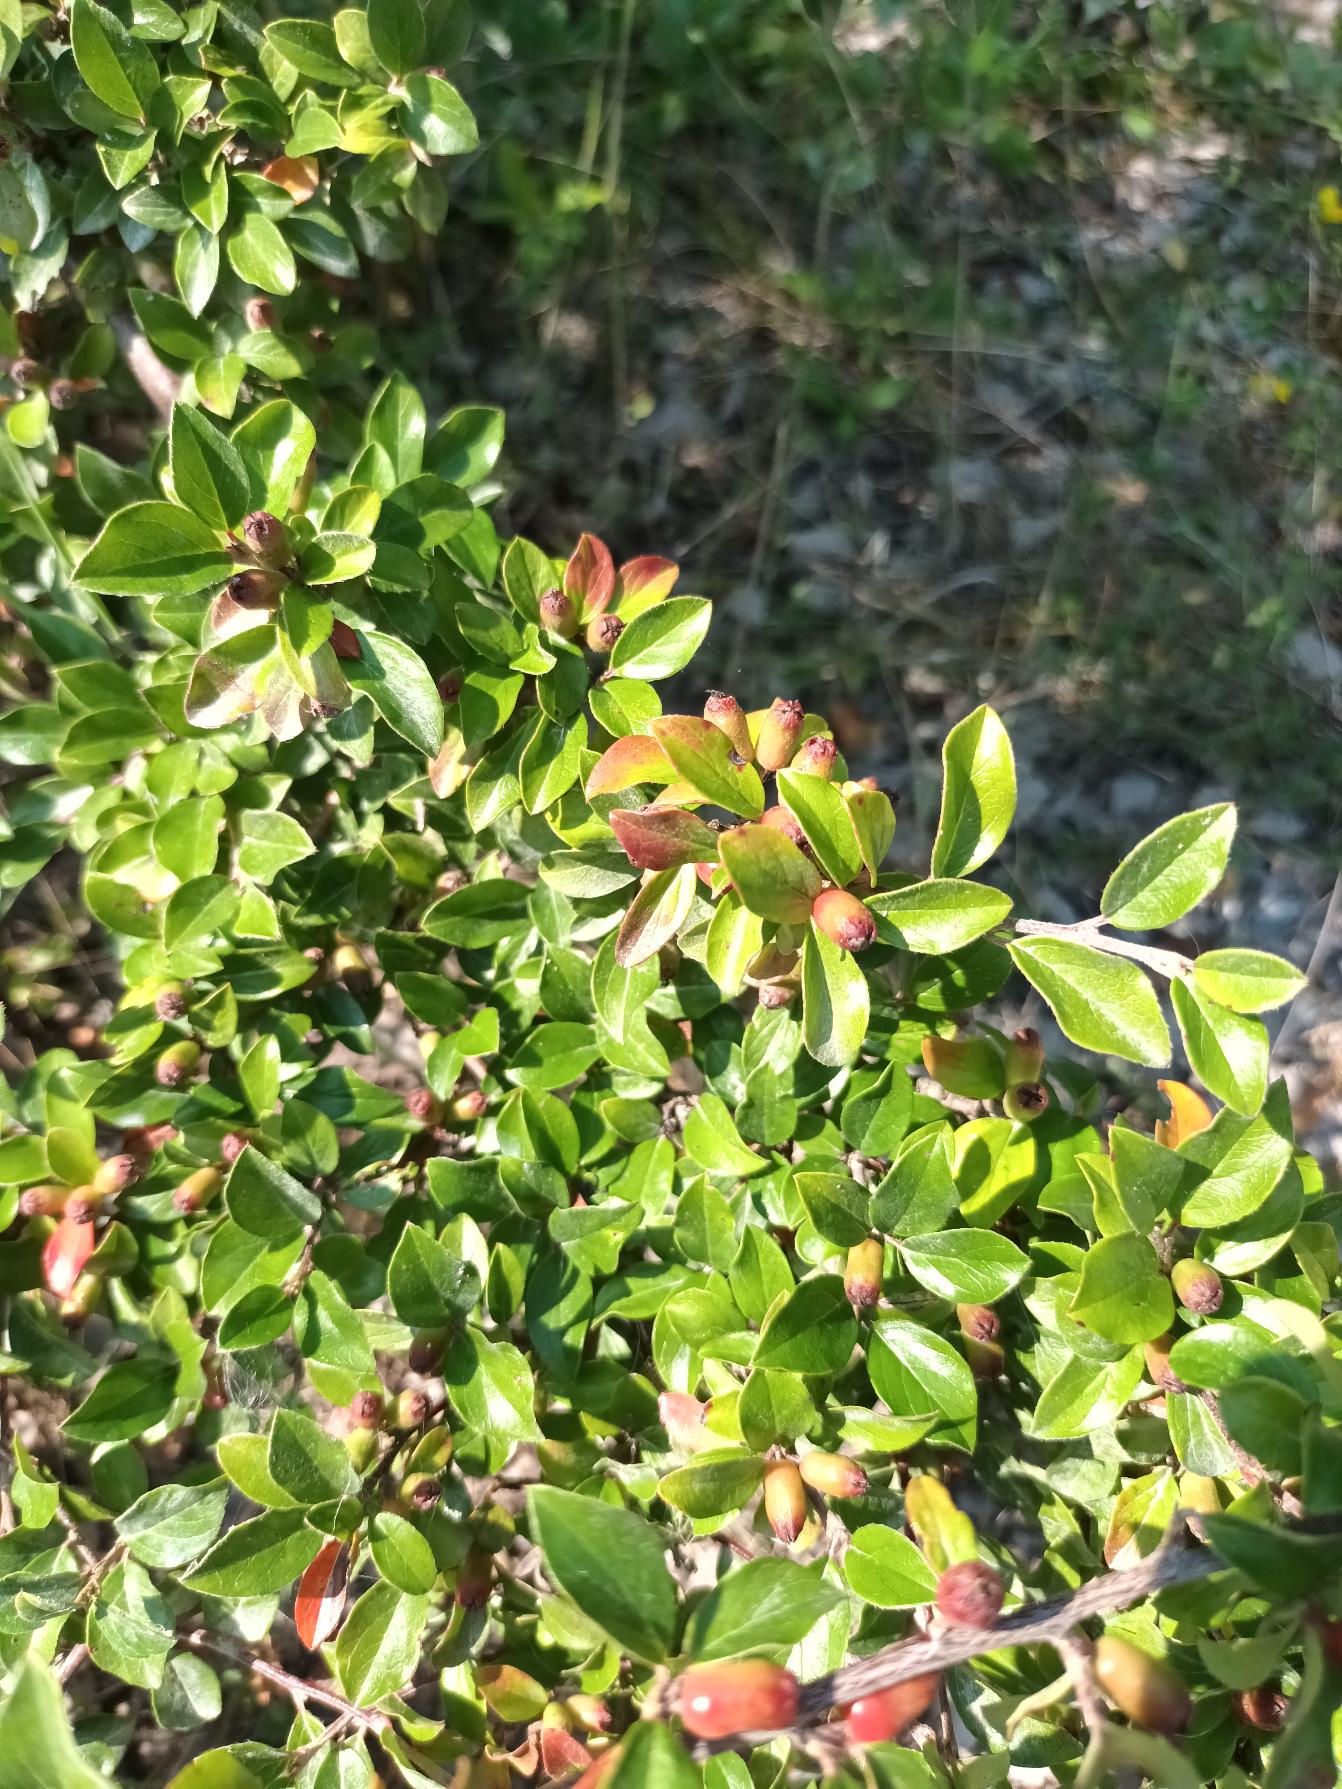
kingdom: Plantae
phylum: Tracheophyta
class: Magnoliopsida
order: Rosales
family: Rosaceae
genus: Cotoneaster
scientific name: Cotoneaster divaricatus
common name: Vifte-dværgmispel
